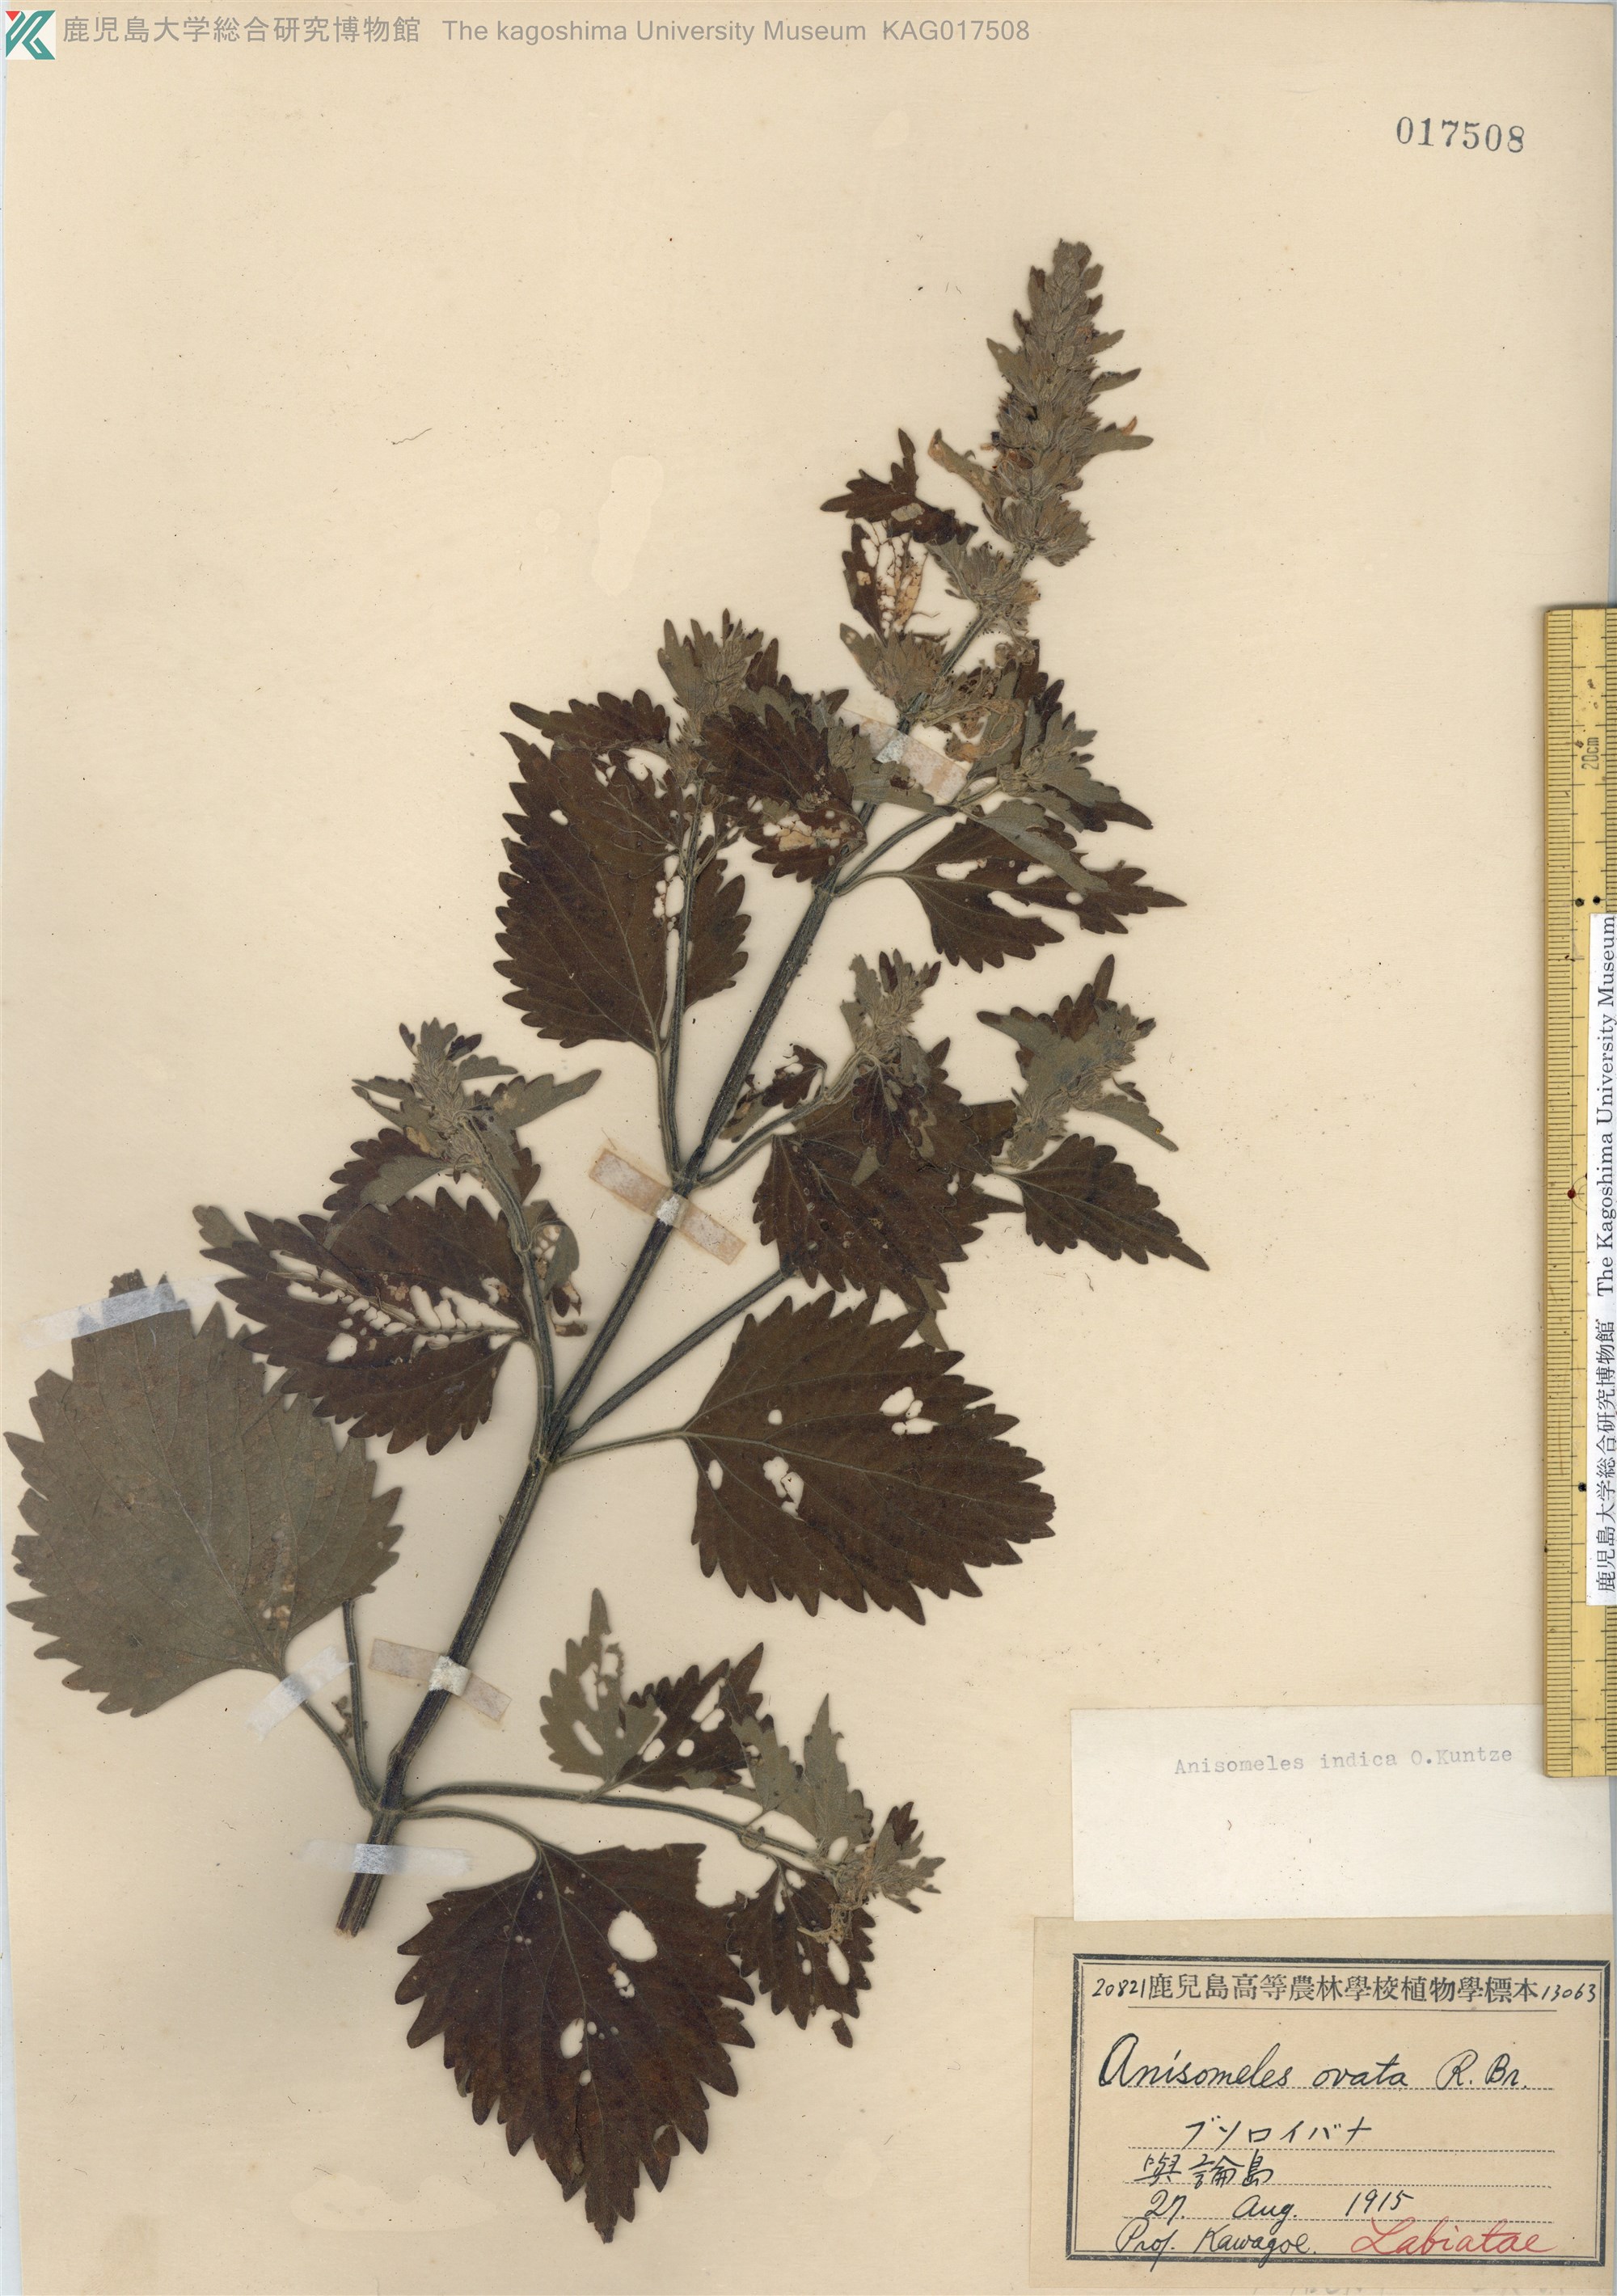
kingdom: Plantae
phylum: Tracheophyta
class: Magnoliopsida
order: Lamiales
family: Lamiaceae
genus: Anisomeles
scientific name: Anisomeles indica
